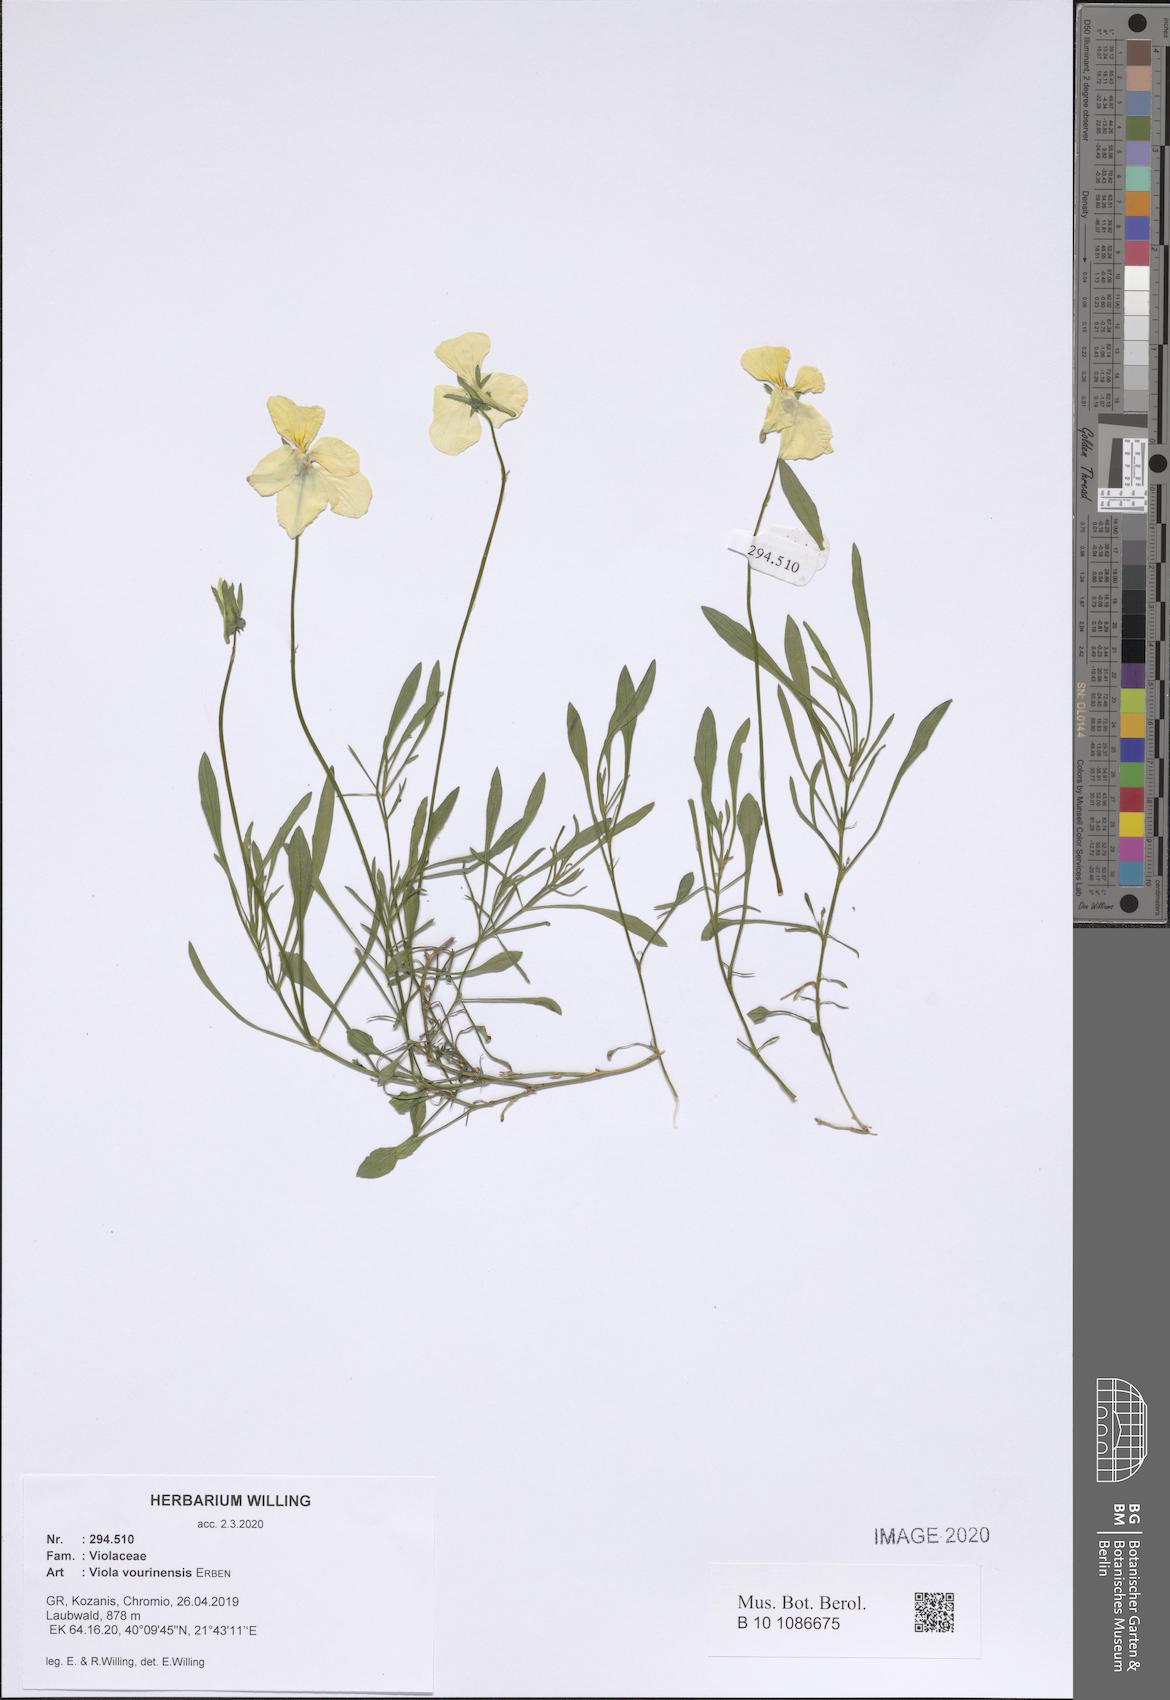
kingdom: Plantae
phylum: Tracheophyta
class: Magnoliopsida
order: Malpighiales
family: Violaceae
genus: Viola
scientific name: Viola vourinensis
